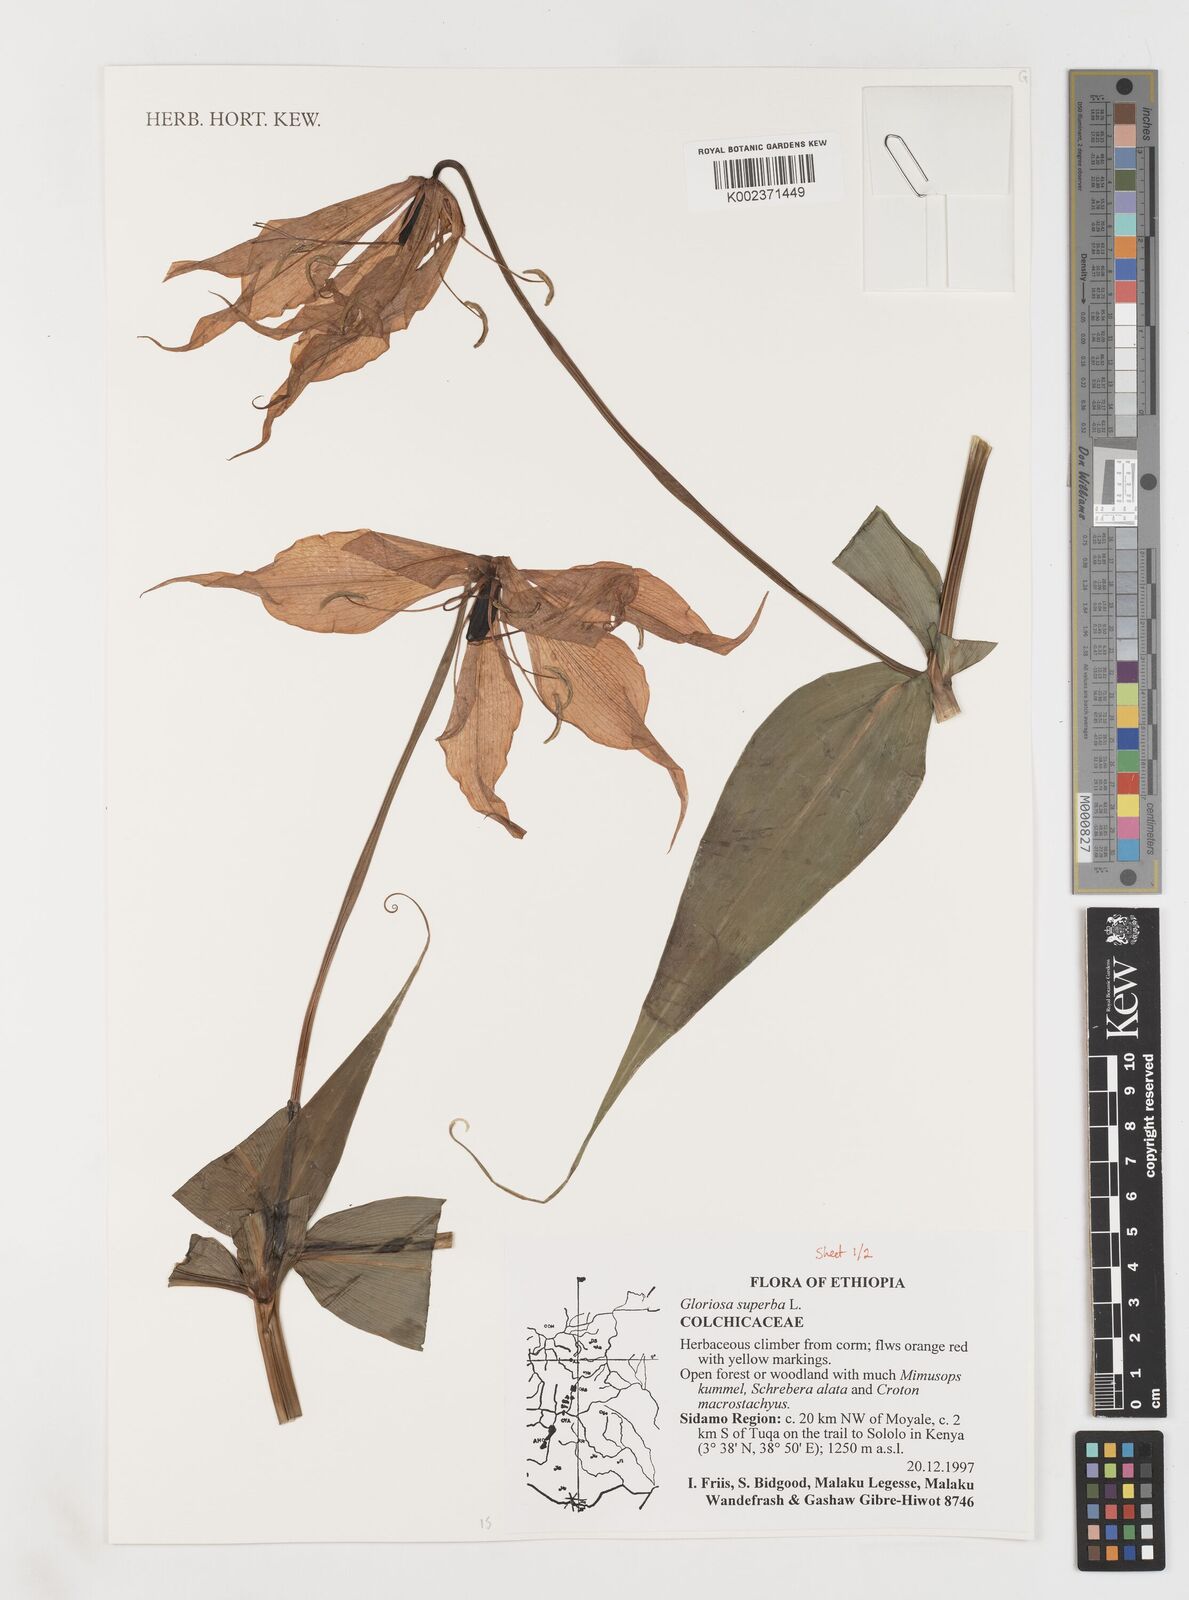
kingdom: Plantae
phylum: Tracheophyta
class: Liliopsida
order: Liliales
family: Colchicaceae
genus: Gloriosa
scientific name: Gloriosa simplex
